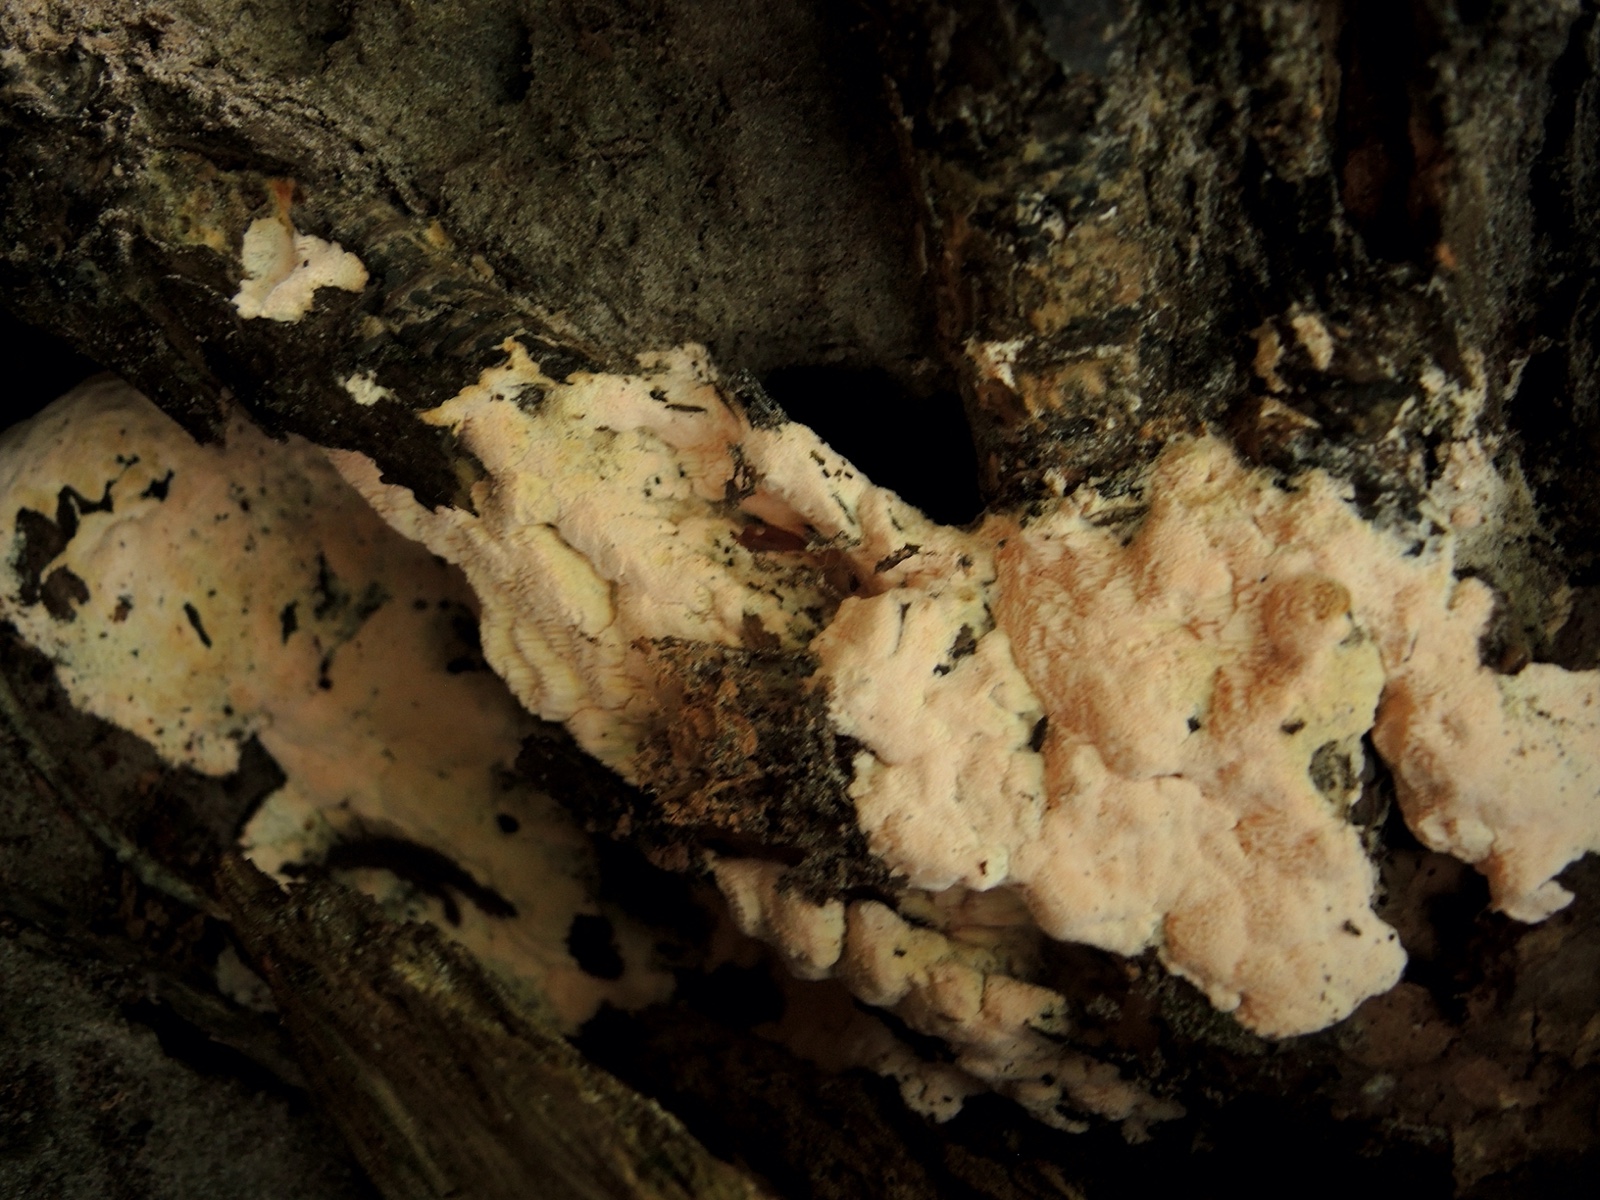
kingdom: Fungi
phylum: Basidiomycota
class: Agaricomycetes
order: Polyporales
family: Polyporaceae
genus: Rhodonia
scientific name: Rhodonia placenta
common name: rosaporesvamp
